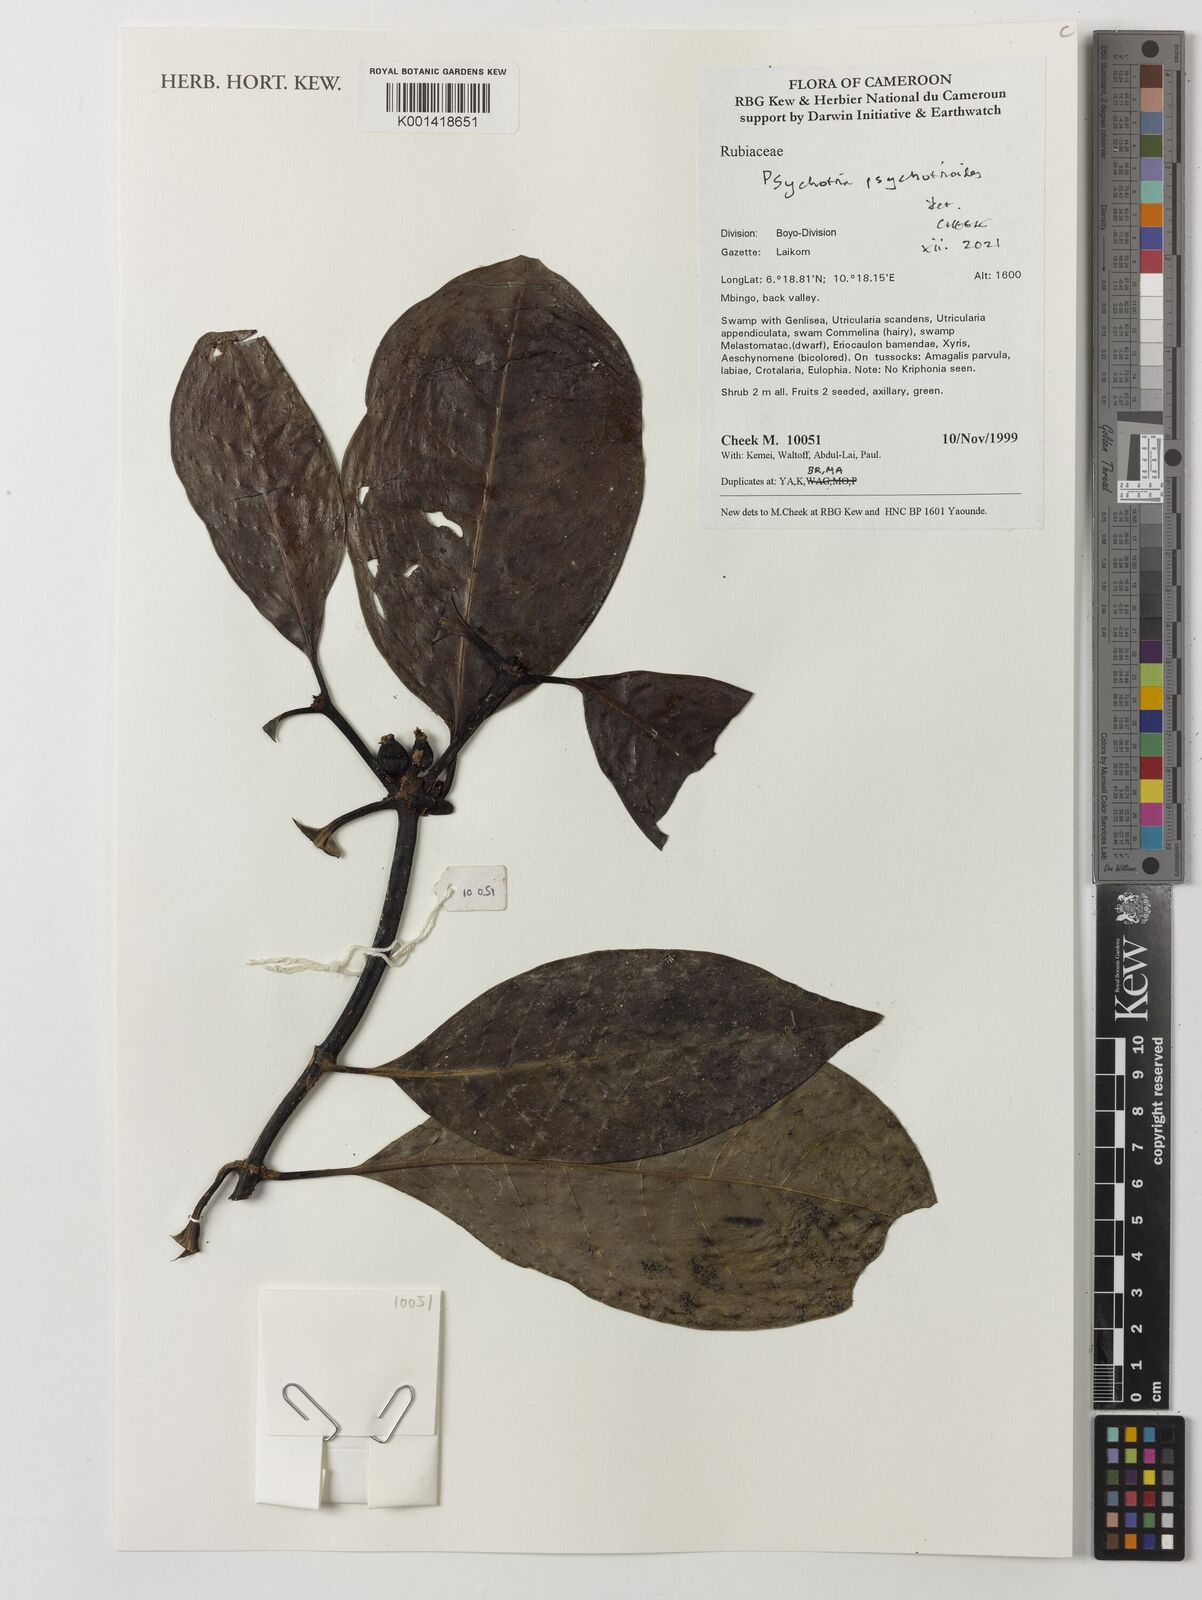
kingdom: Plantae
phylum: Tracheophyta
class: Magnoliopsida
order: Gentianales
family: Rubiaceae
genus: Psychotria
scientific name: Psychotria psychotrioides
